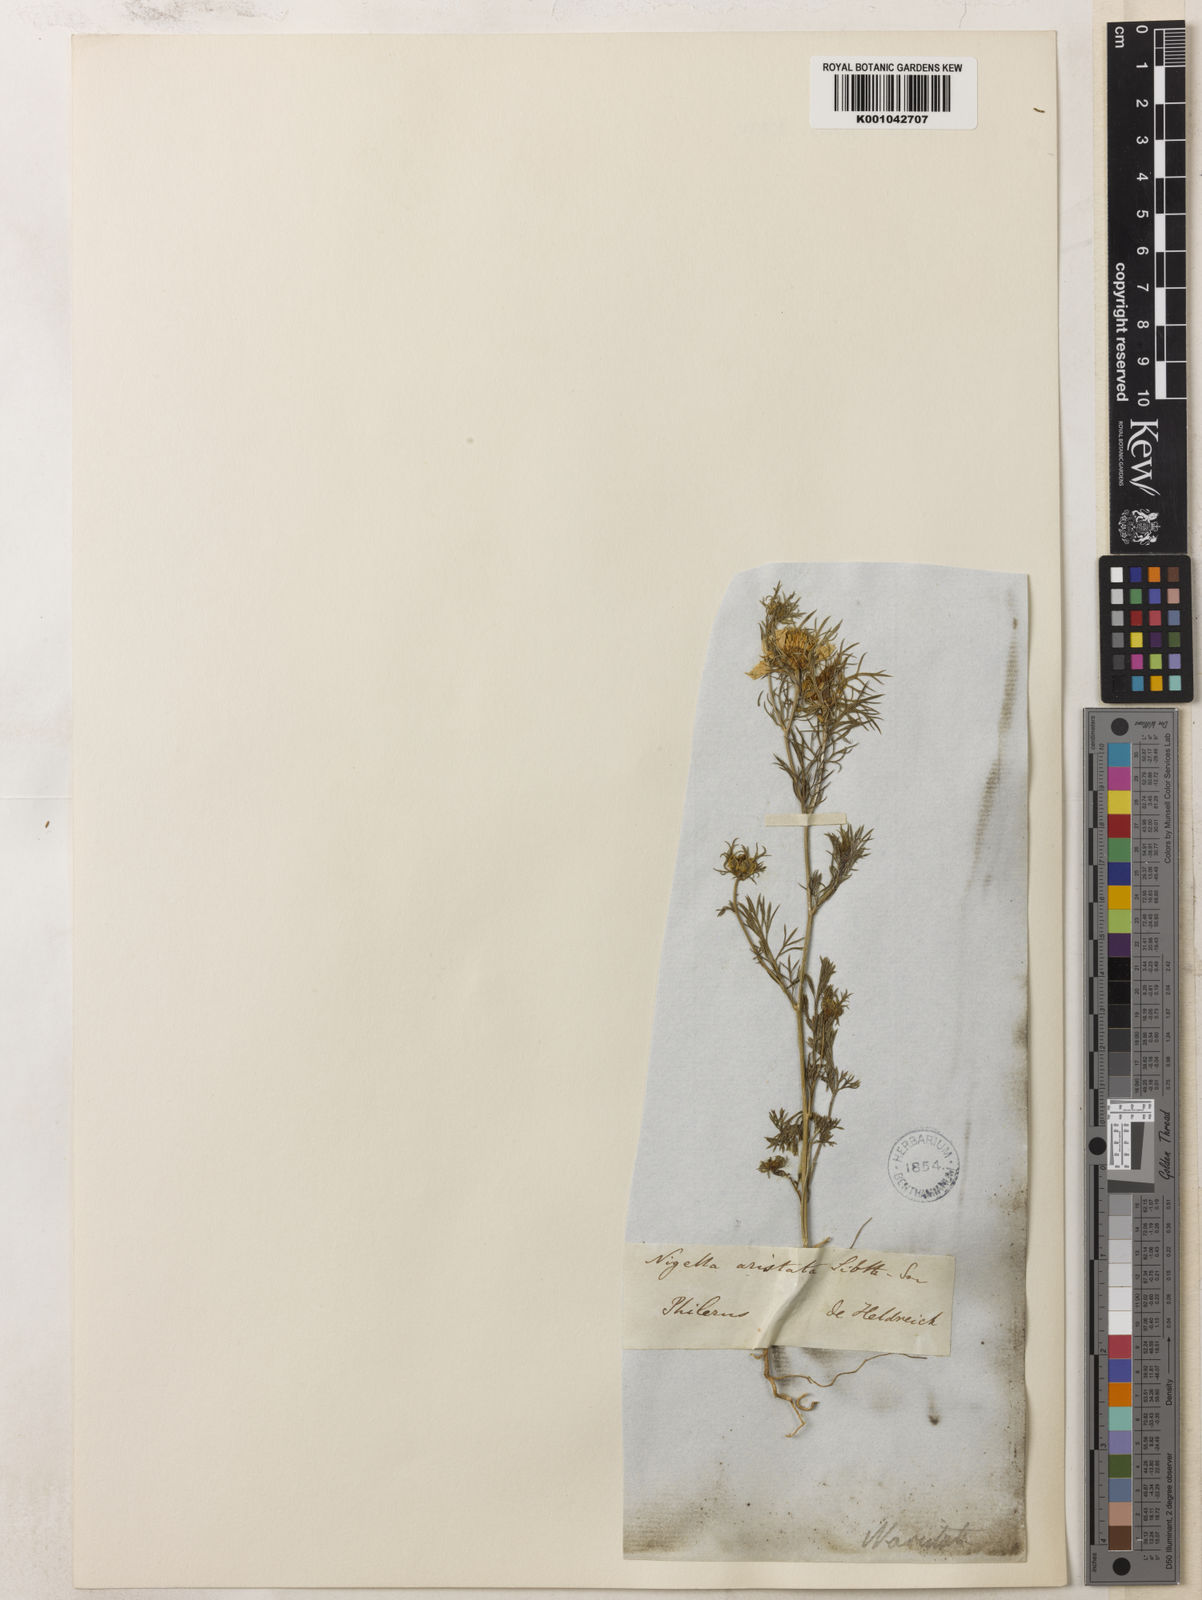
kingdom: Plantae
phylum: Tracheophyta
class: Magnoliopsida
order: Ranunculales
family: Ranunculaceae
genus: Nigella
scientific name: Nigella arvensis
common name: Wild fennel-flower
